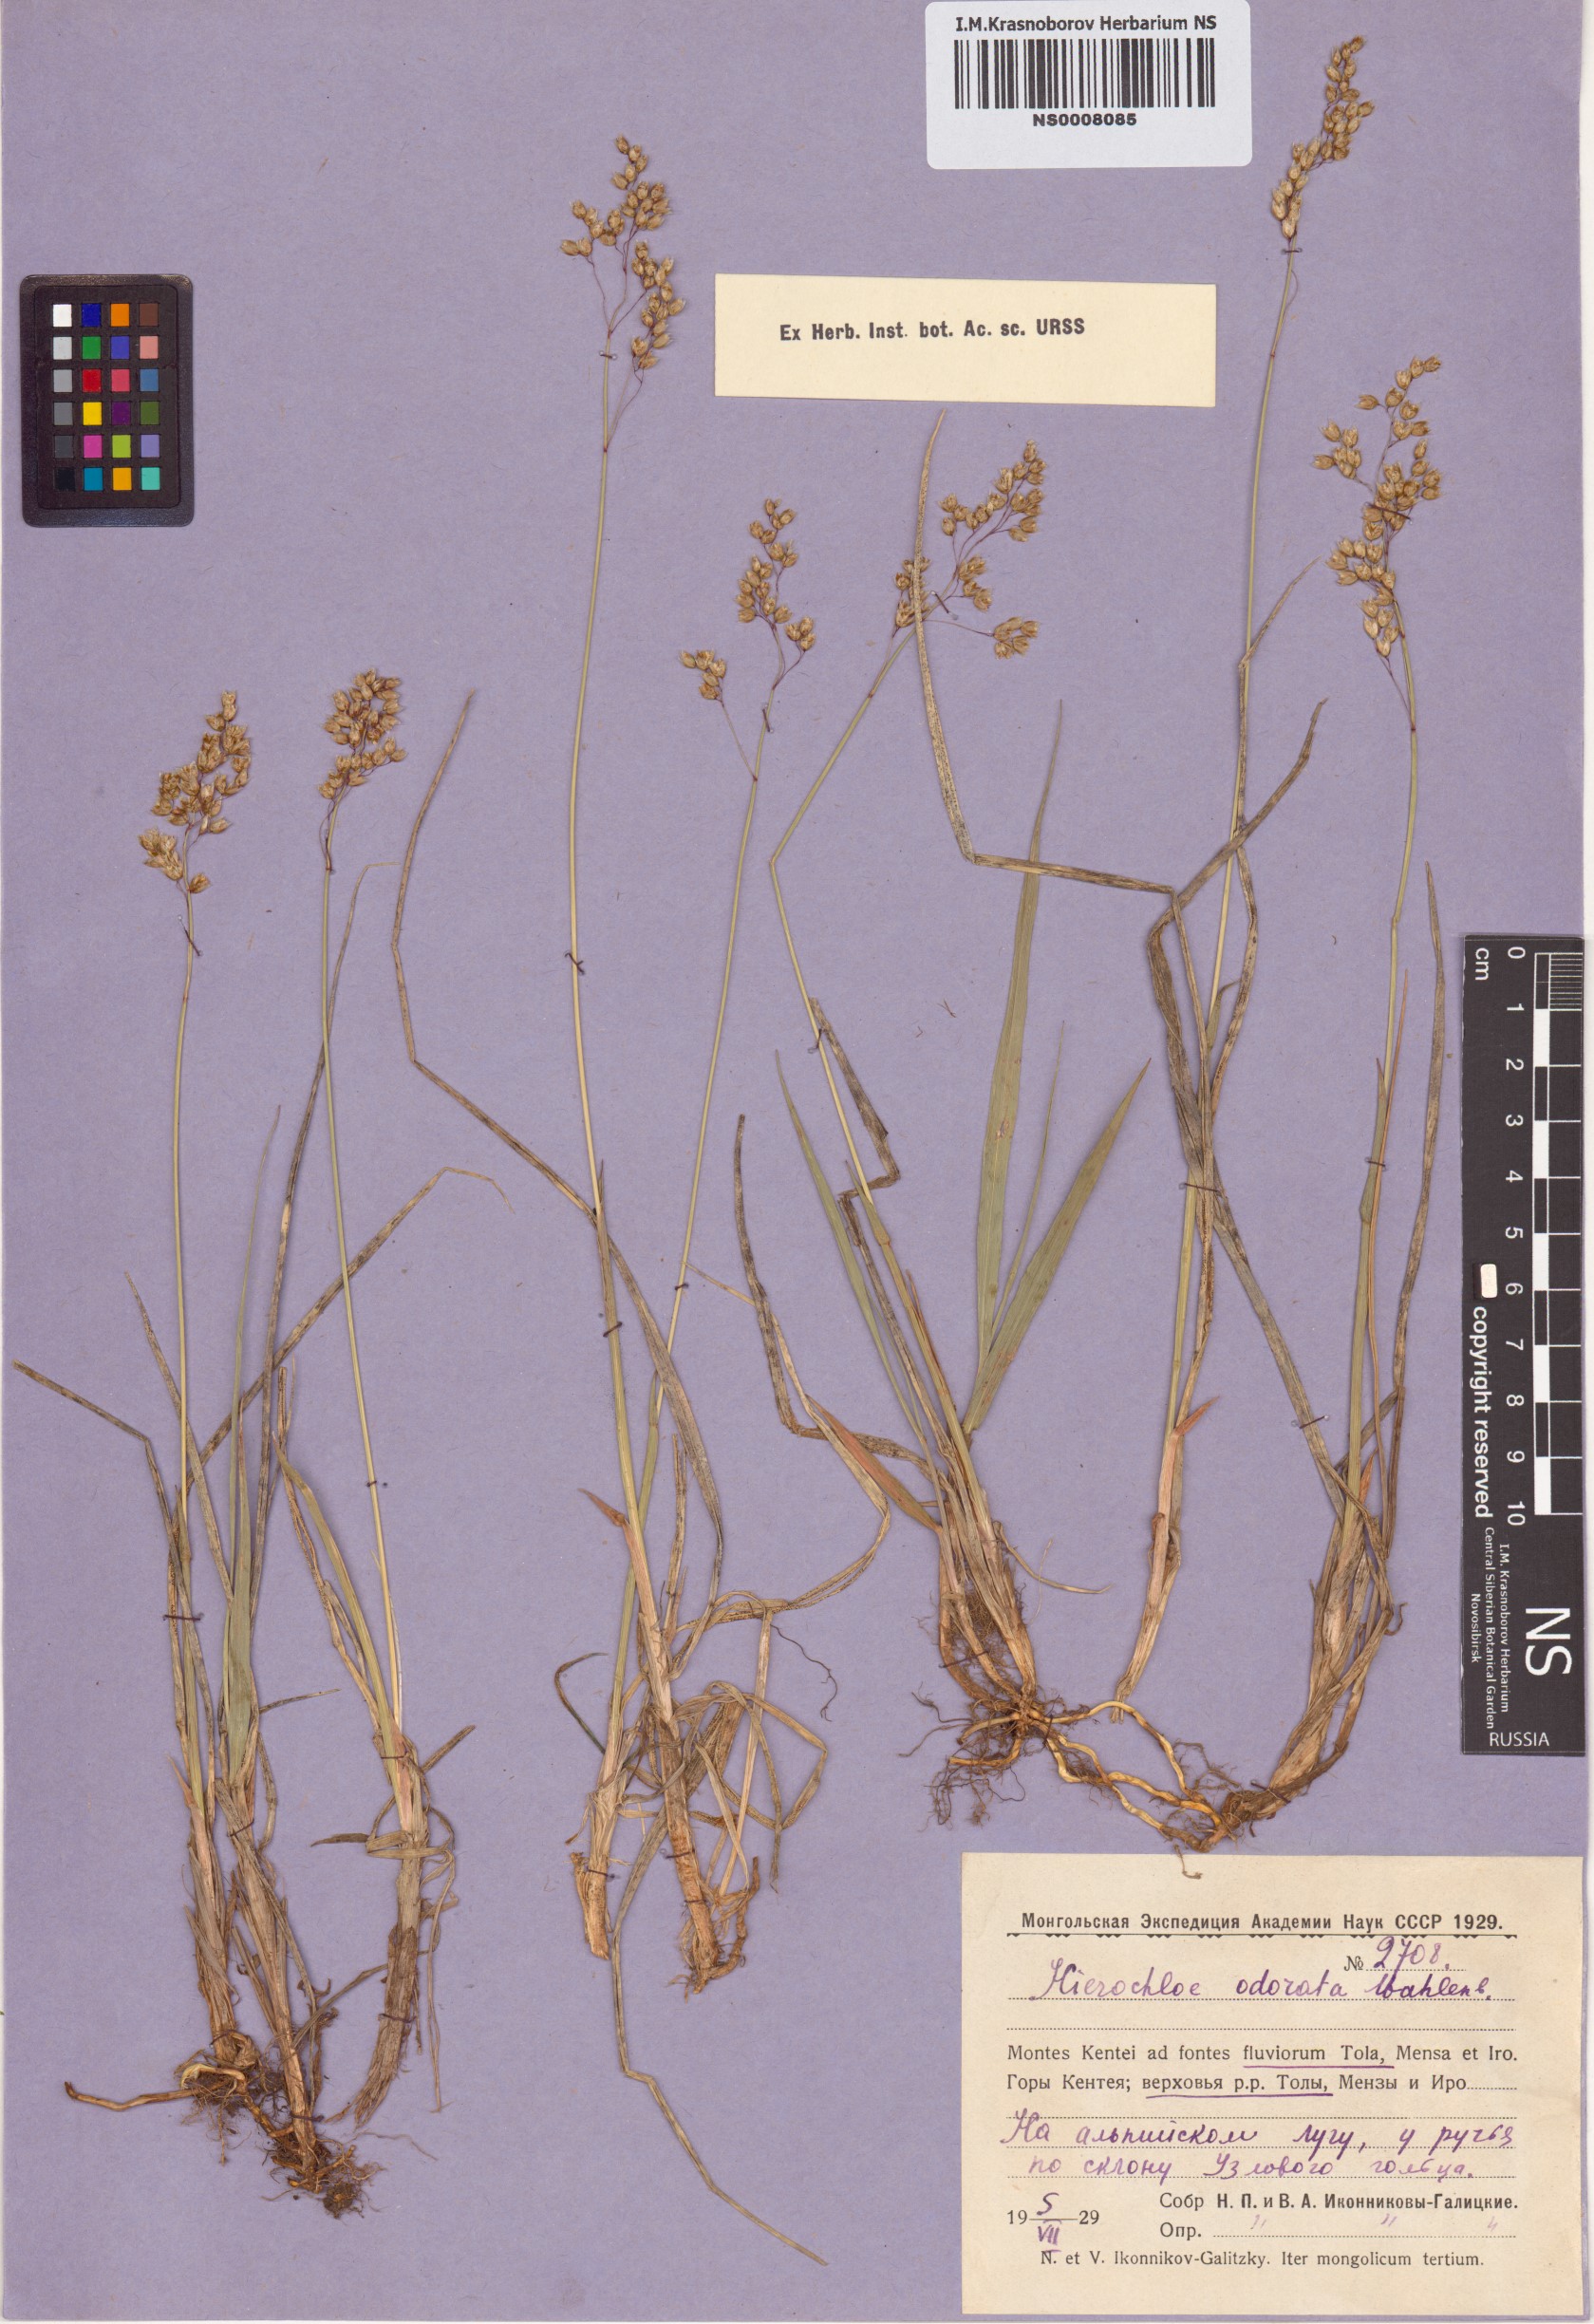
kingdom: Plantae
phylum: Tracheophyta
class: Liliopsida
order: Poales
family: Poaceae
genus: Anthoxanthum
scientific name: Anthoxanthum nitens
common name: Holy grass
